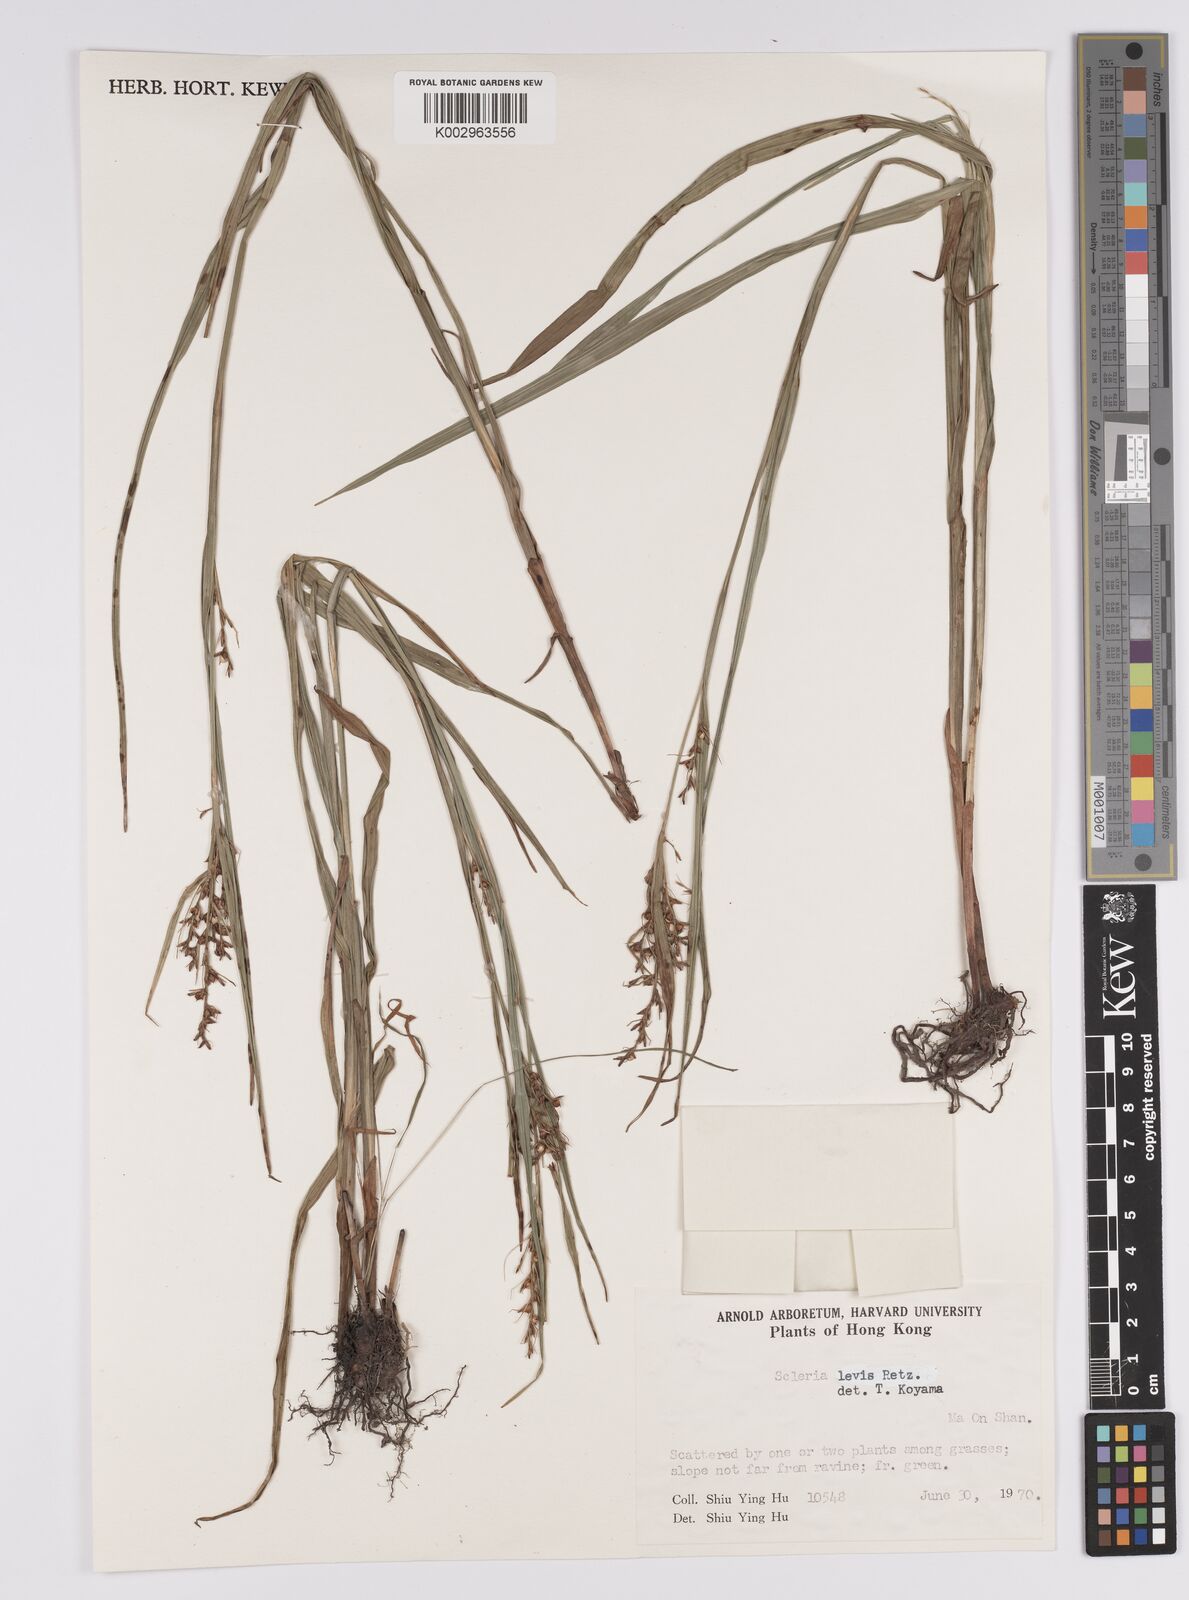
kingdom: Plantae
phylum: Tracheophyta
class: Liliopsida
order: Poales
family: Cyperaceae
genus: Scleria
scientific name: Scleria levis
